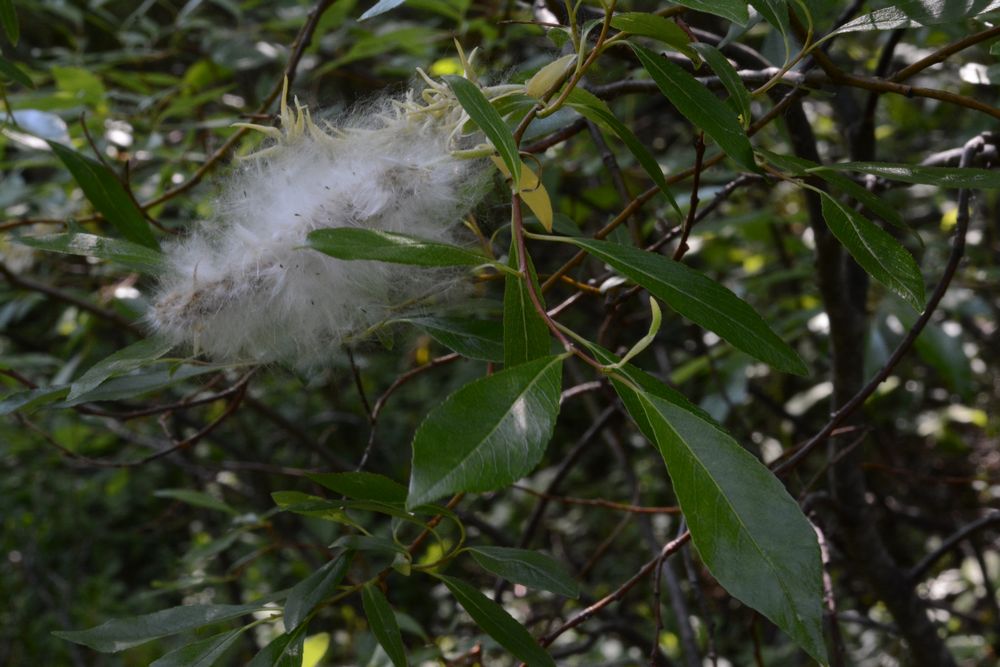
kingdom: Plantae
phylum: Tracheophyta
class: Magnoliopsida
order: Malpighiales
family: Salicaceae
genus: Salix
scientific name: Salix phylicifolia
